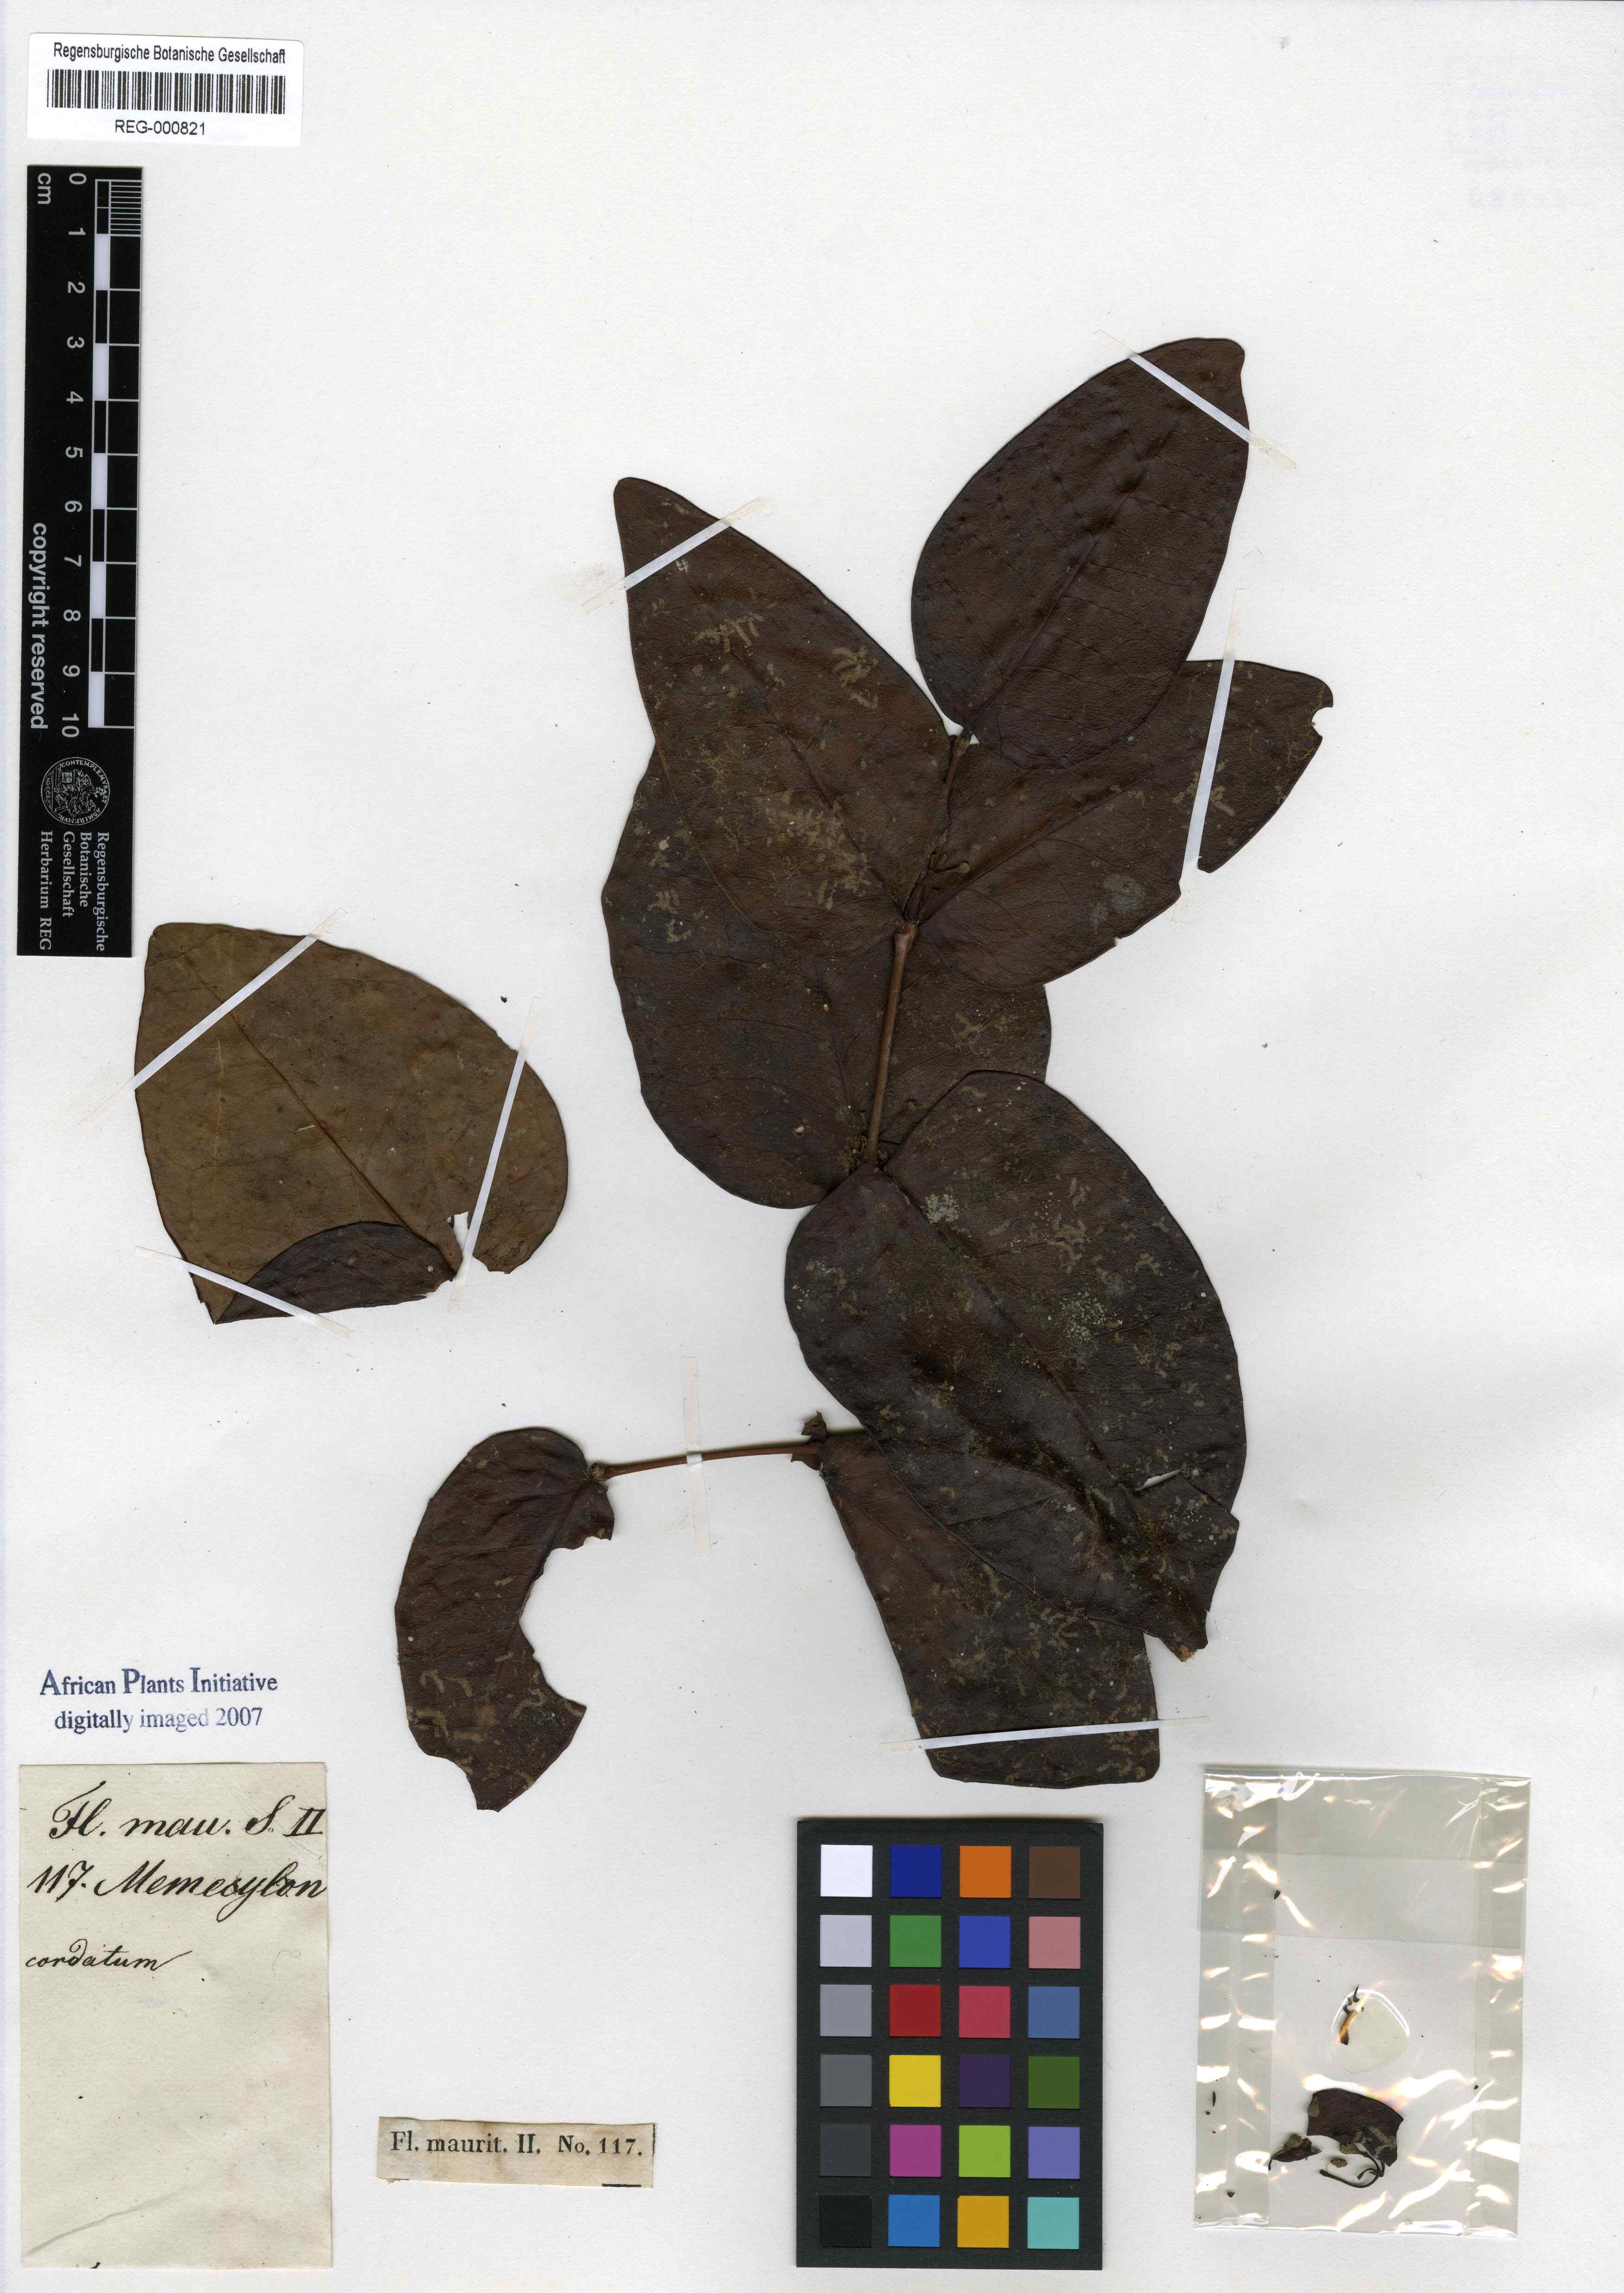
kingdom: Plantae
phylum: Tracheophyta
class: Magnoliopsida
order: Myrtales
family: Melastomataceae
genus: Memecylon
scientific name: Memecylon cordatum
